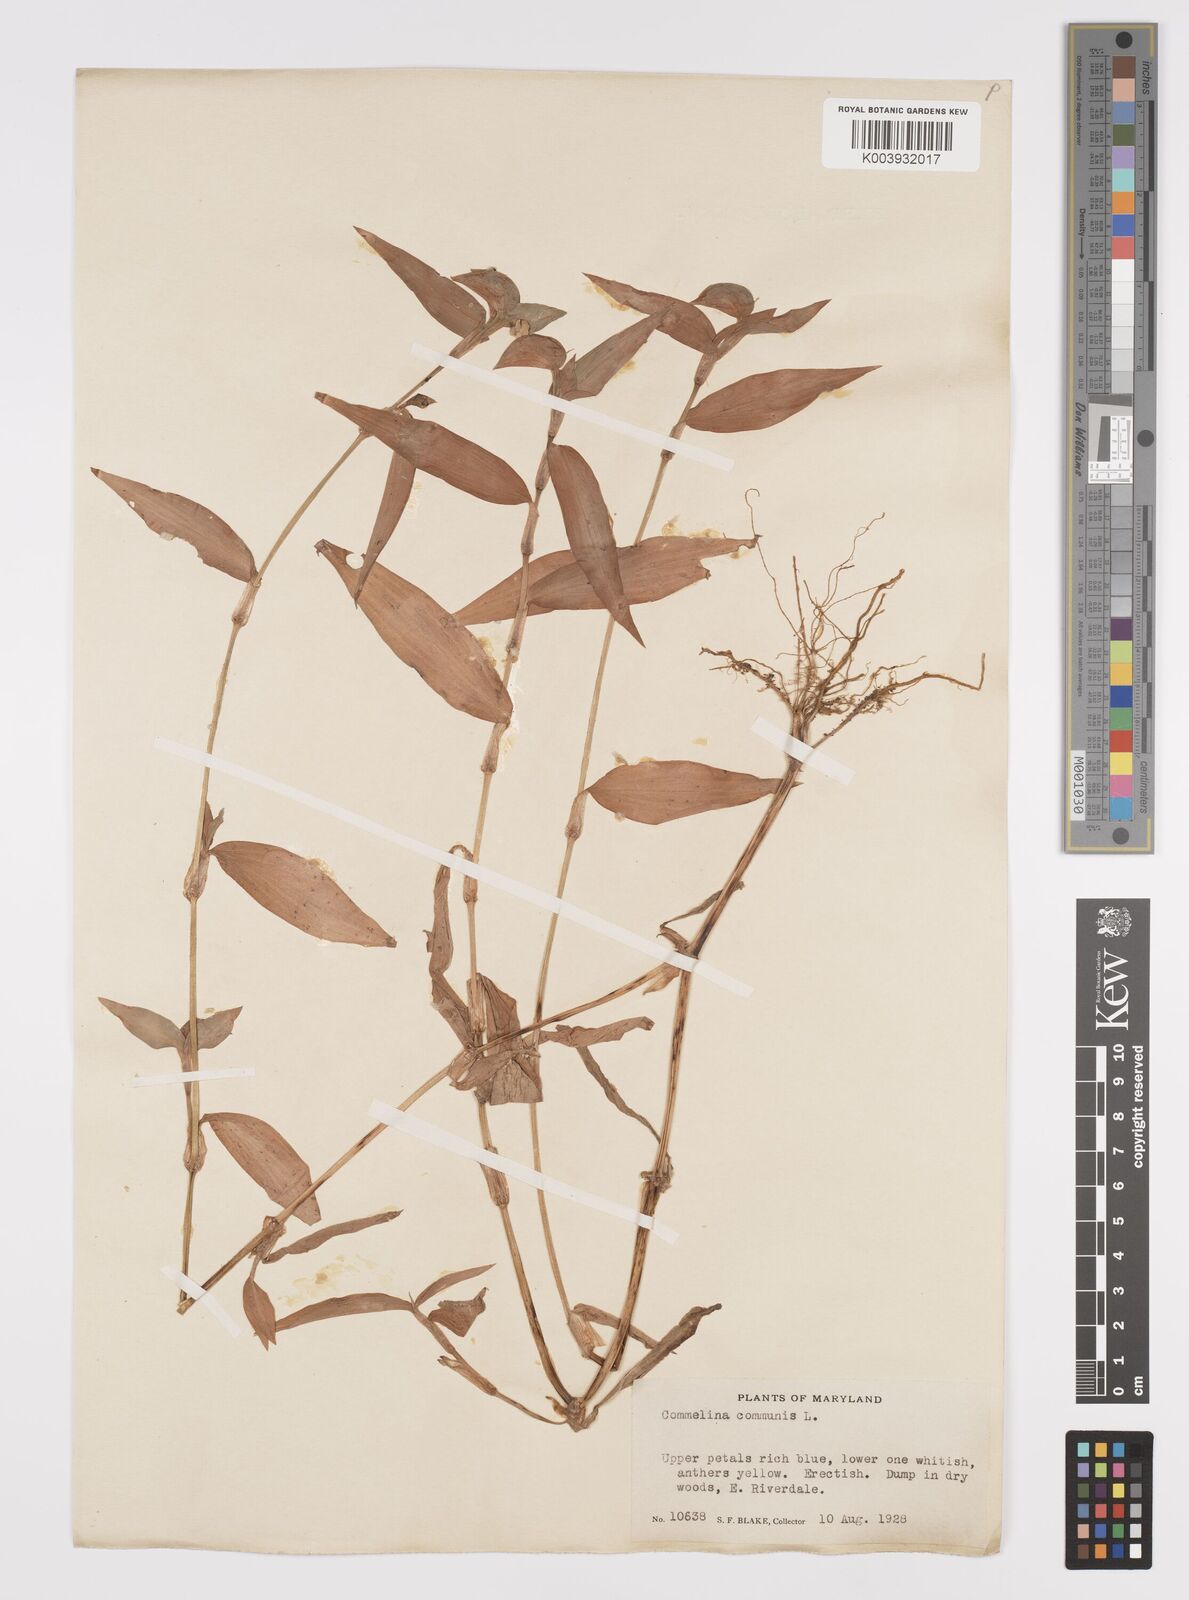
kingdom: Plantae
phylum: Tracheophyta
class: Liliopsida
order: Commelinales
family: Commelinaceae
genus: Commelina
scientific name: Commelina communis
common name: Asiatic dayflower
